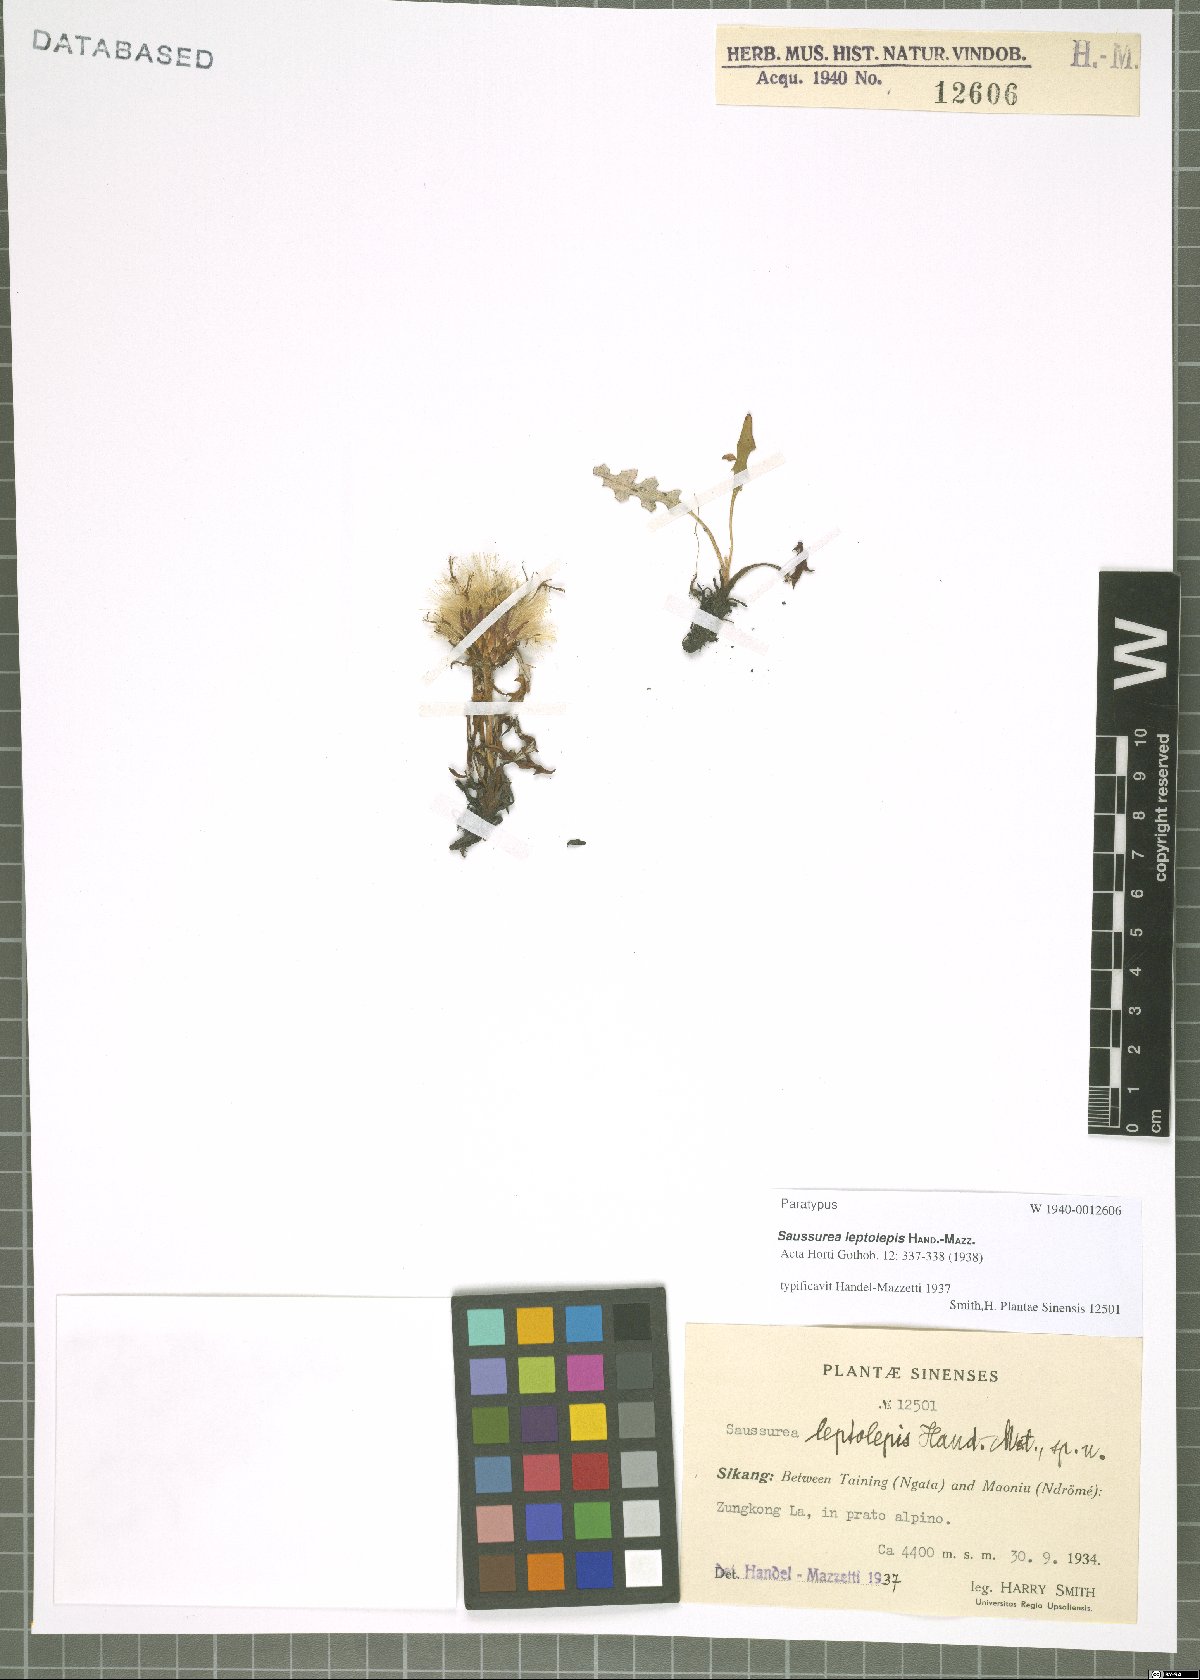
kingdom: Plantae
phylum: Tracheophyta
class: Magnoliopsida
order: Asterales
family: Asteraceae
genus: Saussurea
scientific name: Saussurea leptolepis
